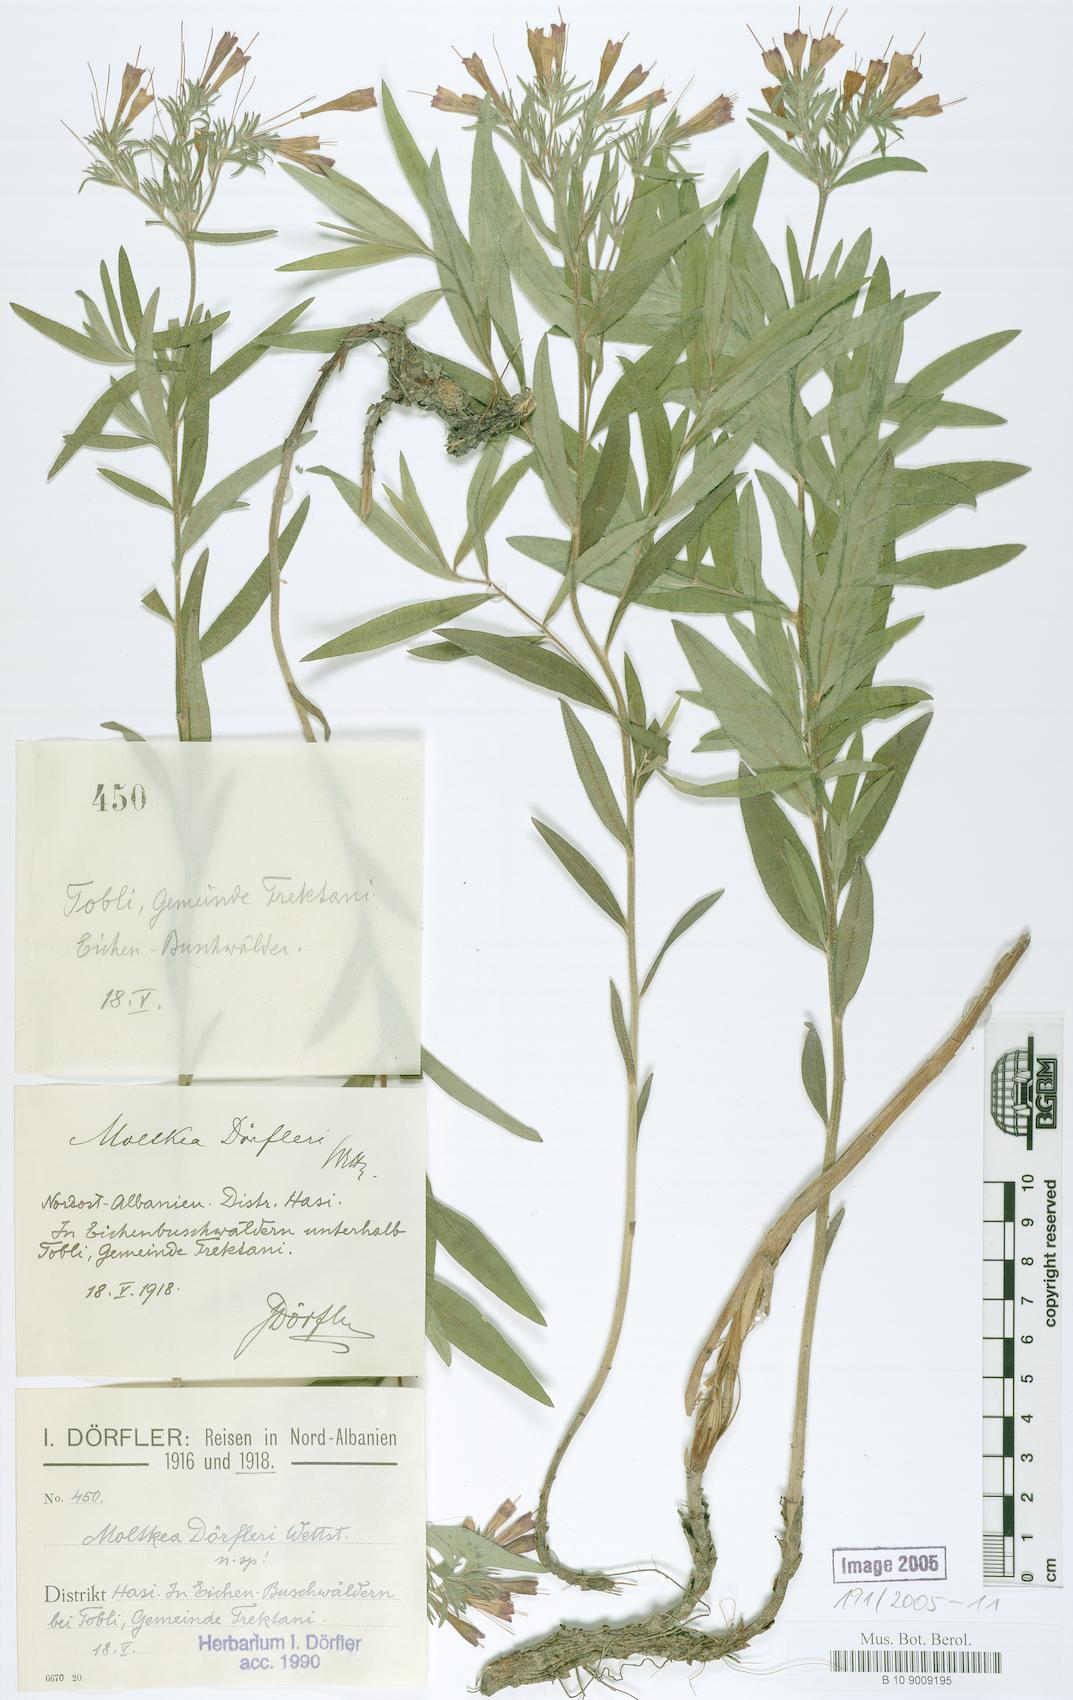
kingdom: Plantae
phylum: Tracheophyta
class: Magnoliopsida
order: Boraginales
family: Boraginaceae
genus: Paramoltkia
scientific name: Paramoltkia doerfleri
